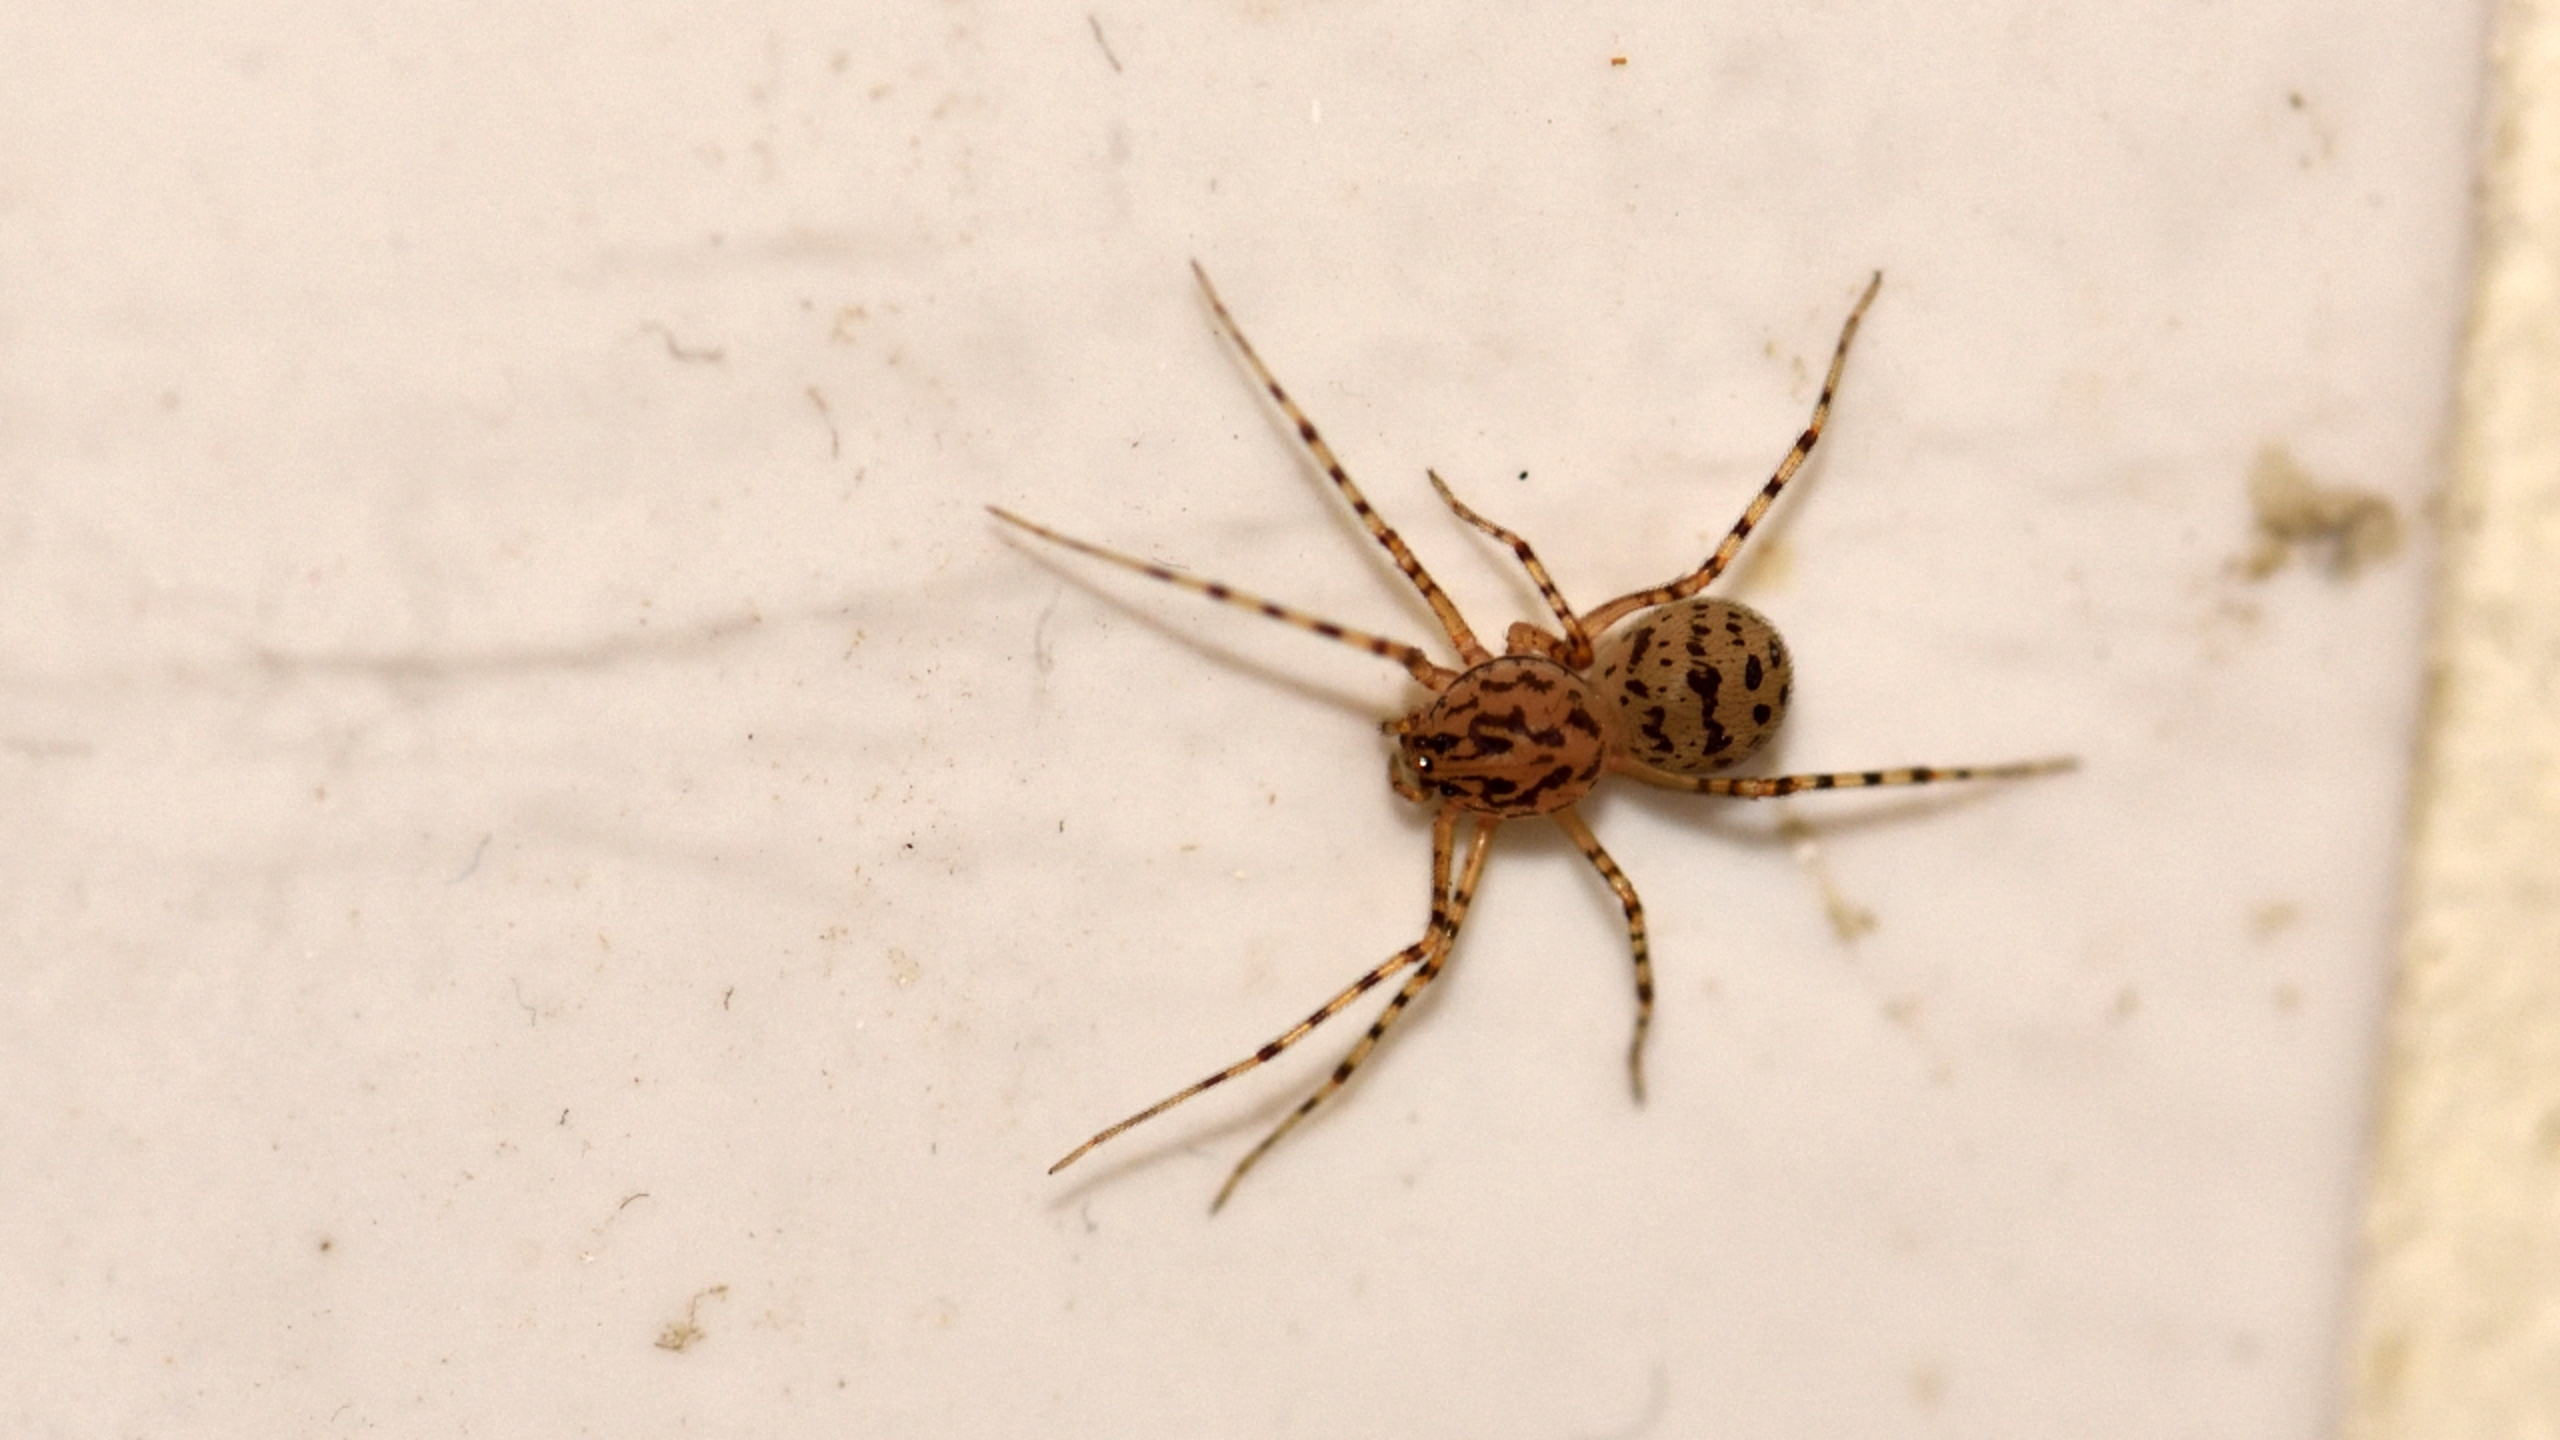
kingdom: Animalia
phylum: Arthropoda
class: Arachnida
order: Araneae
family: Scytodidae
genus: Scytodes
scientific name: Scytodes thoracica
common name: Spytteedderkop
